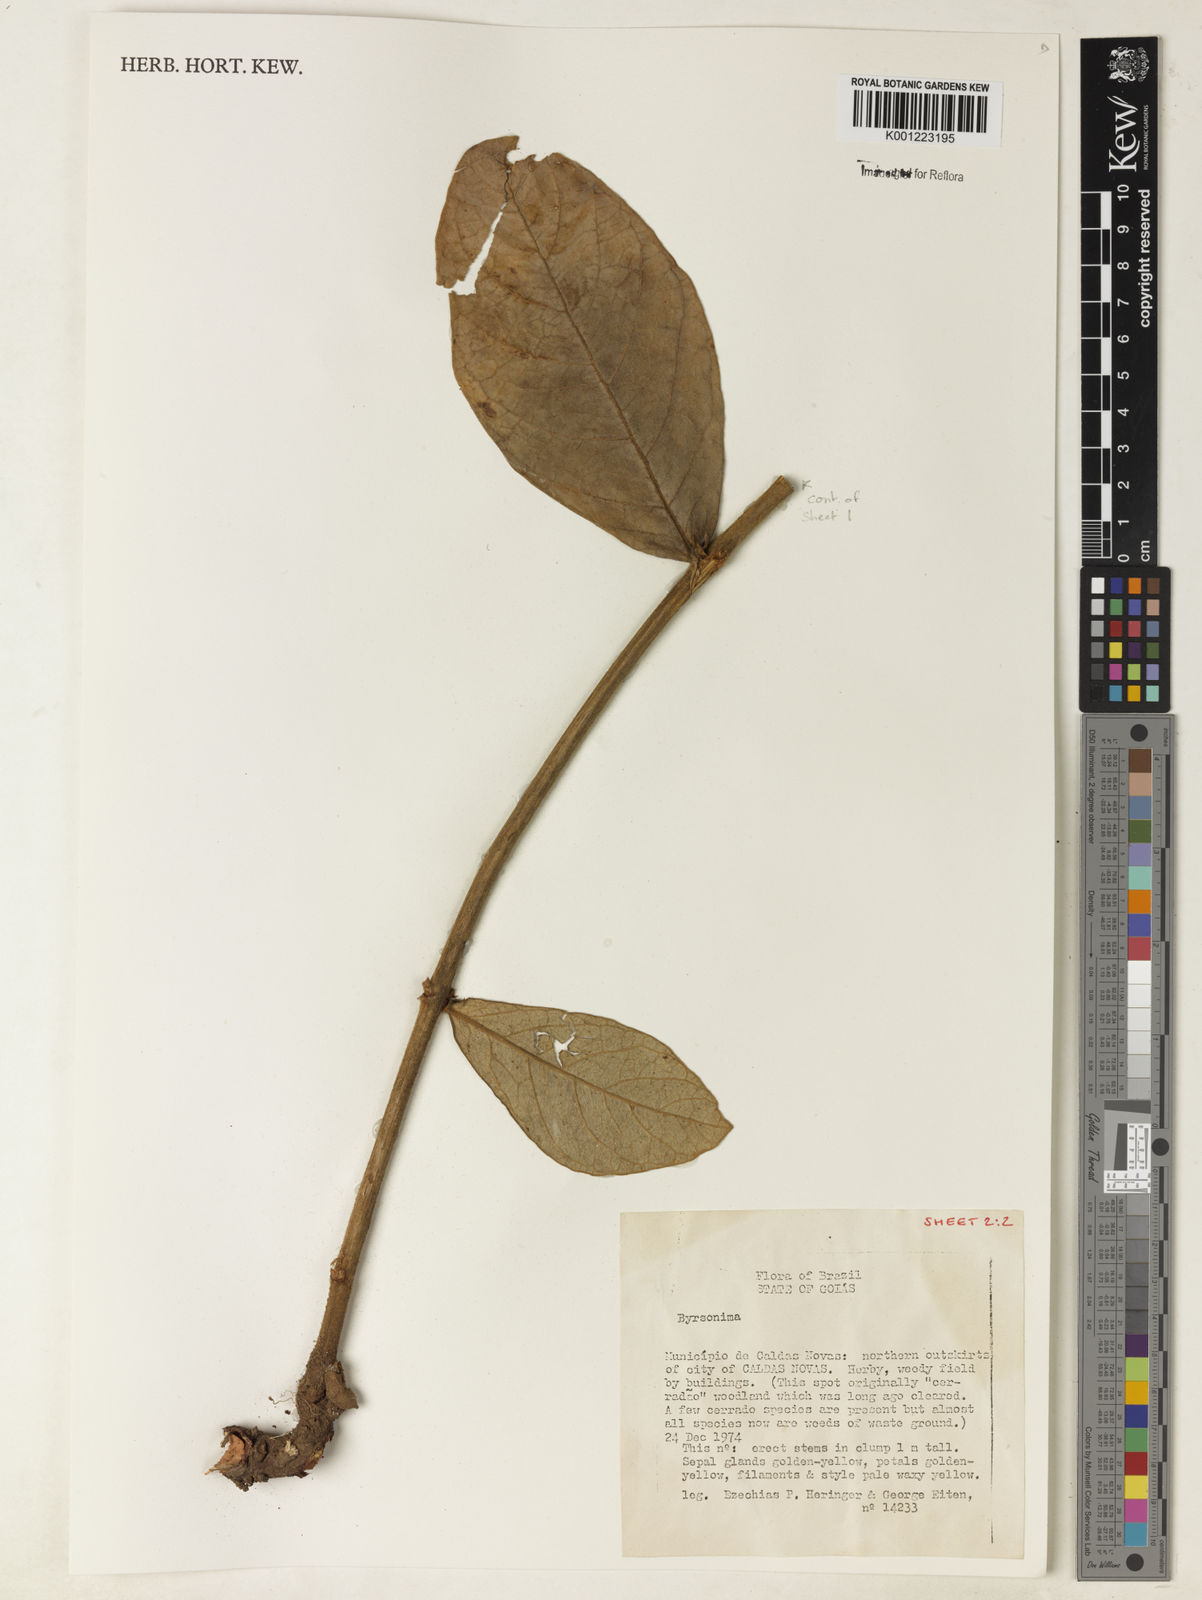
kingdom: Plantae
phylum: Tracheophyta
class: Magnoliopsida
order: Malpighiales
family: Malpighiaceae
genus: Byrsonima
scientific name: Byrsonima
